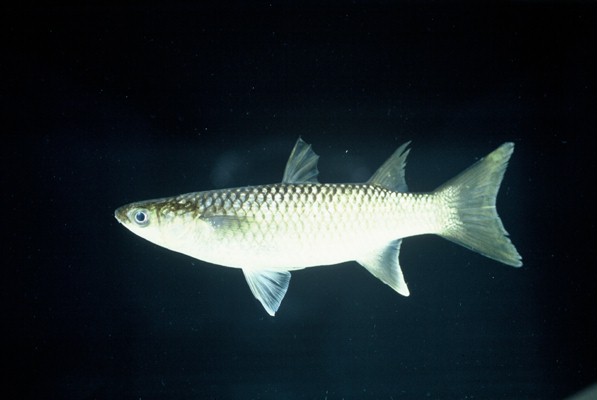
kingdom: Animalia
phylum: Chordata
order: Mugiliformes
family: Mugilidae
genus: Planiliza
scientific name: Planiliza alata
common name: Diamond mullet
